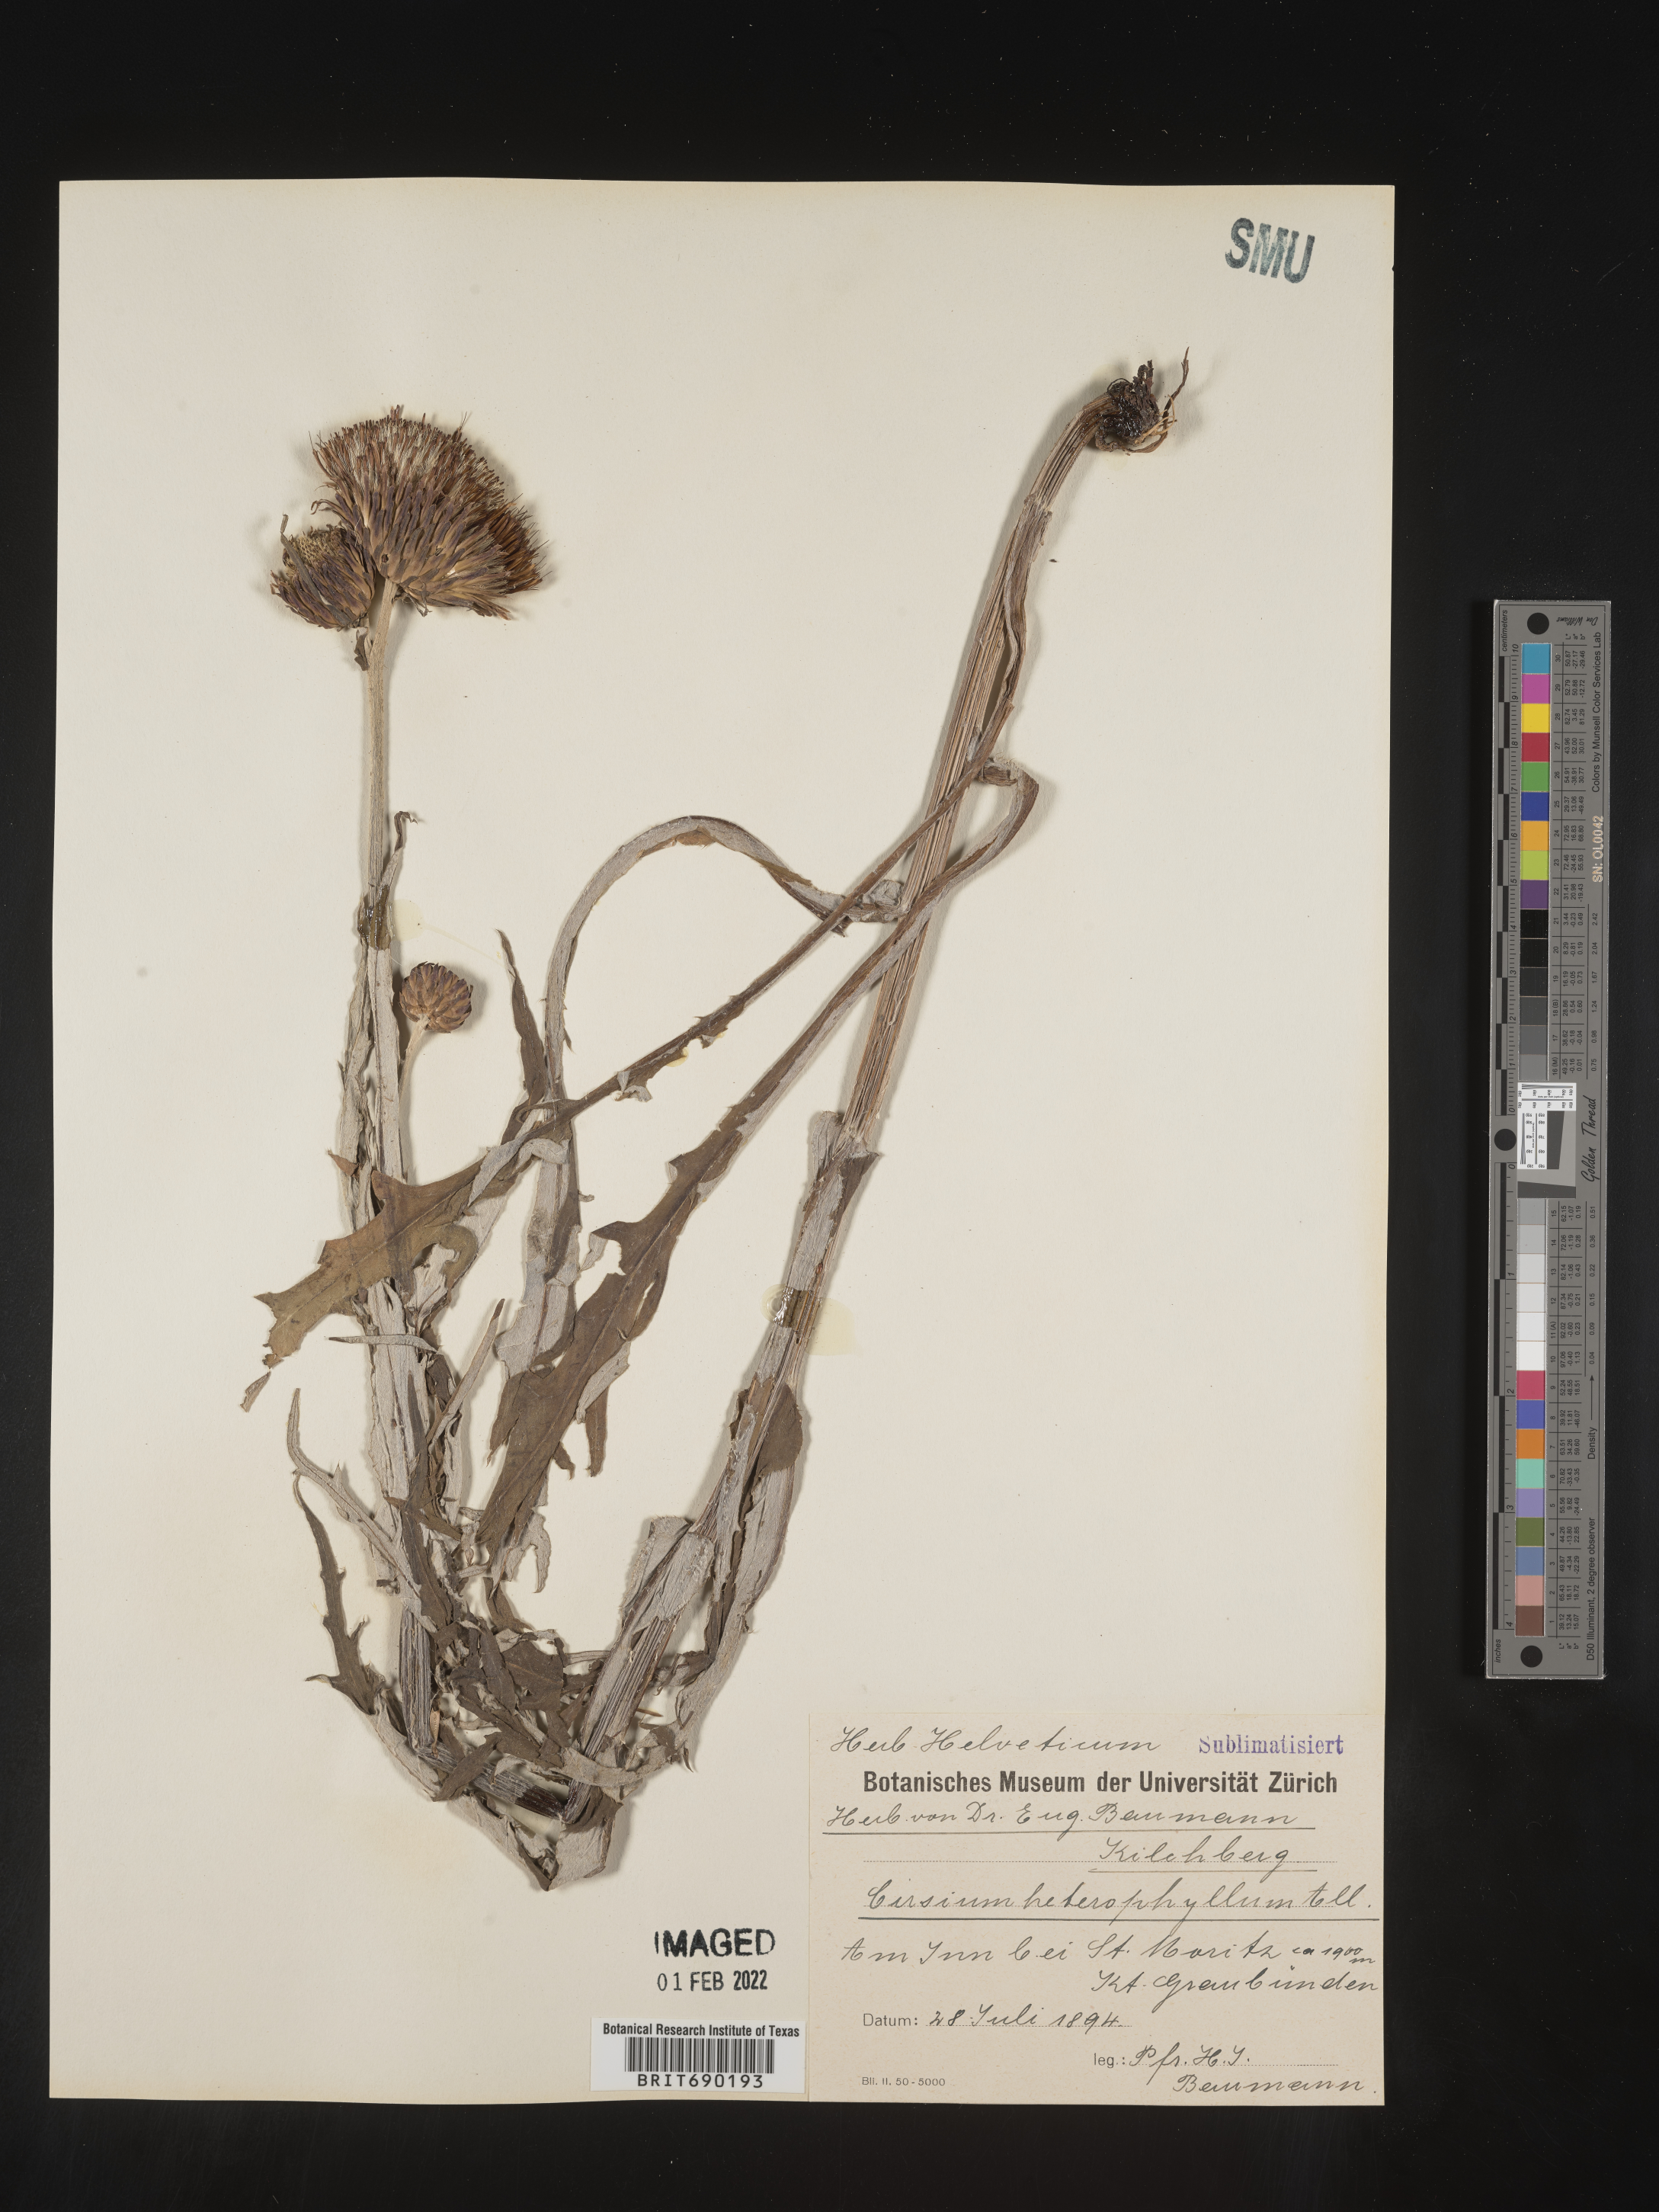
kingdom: Plantae
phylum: Tracheophyta
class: Magnoliopsida
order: Asterales
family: Asteraceae
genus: Cirsium
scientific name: Cirsium
